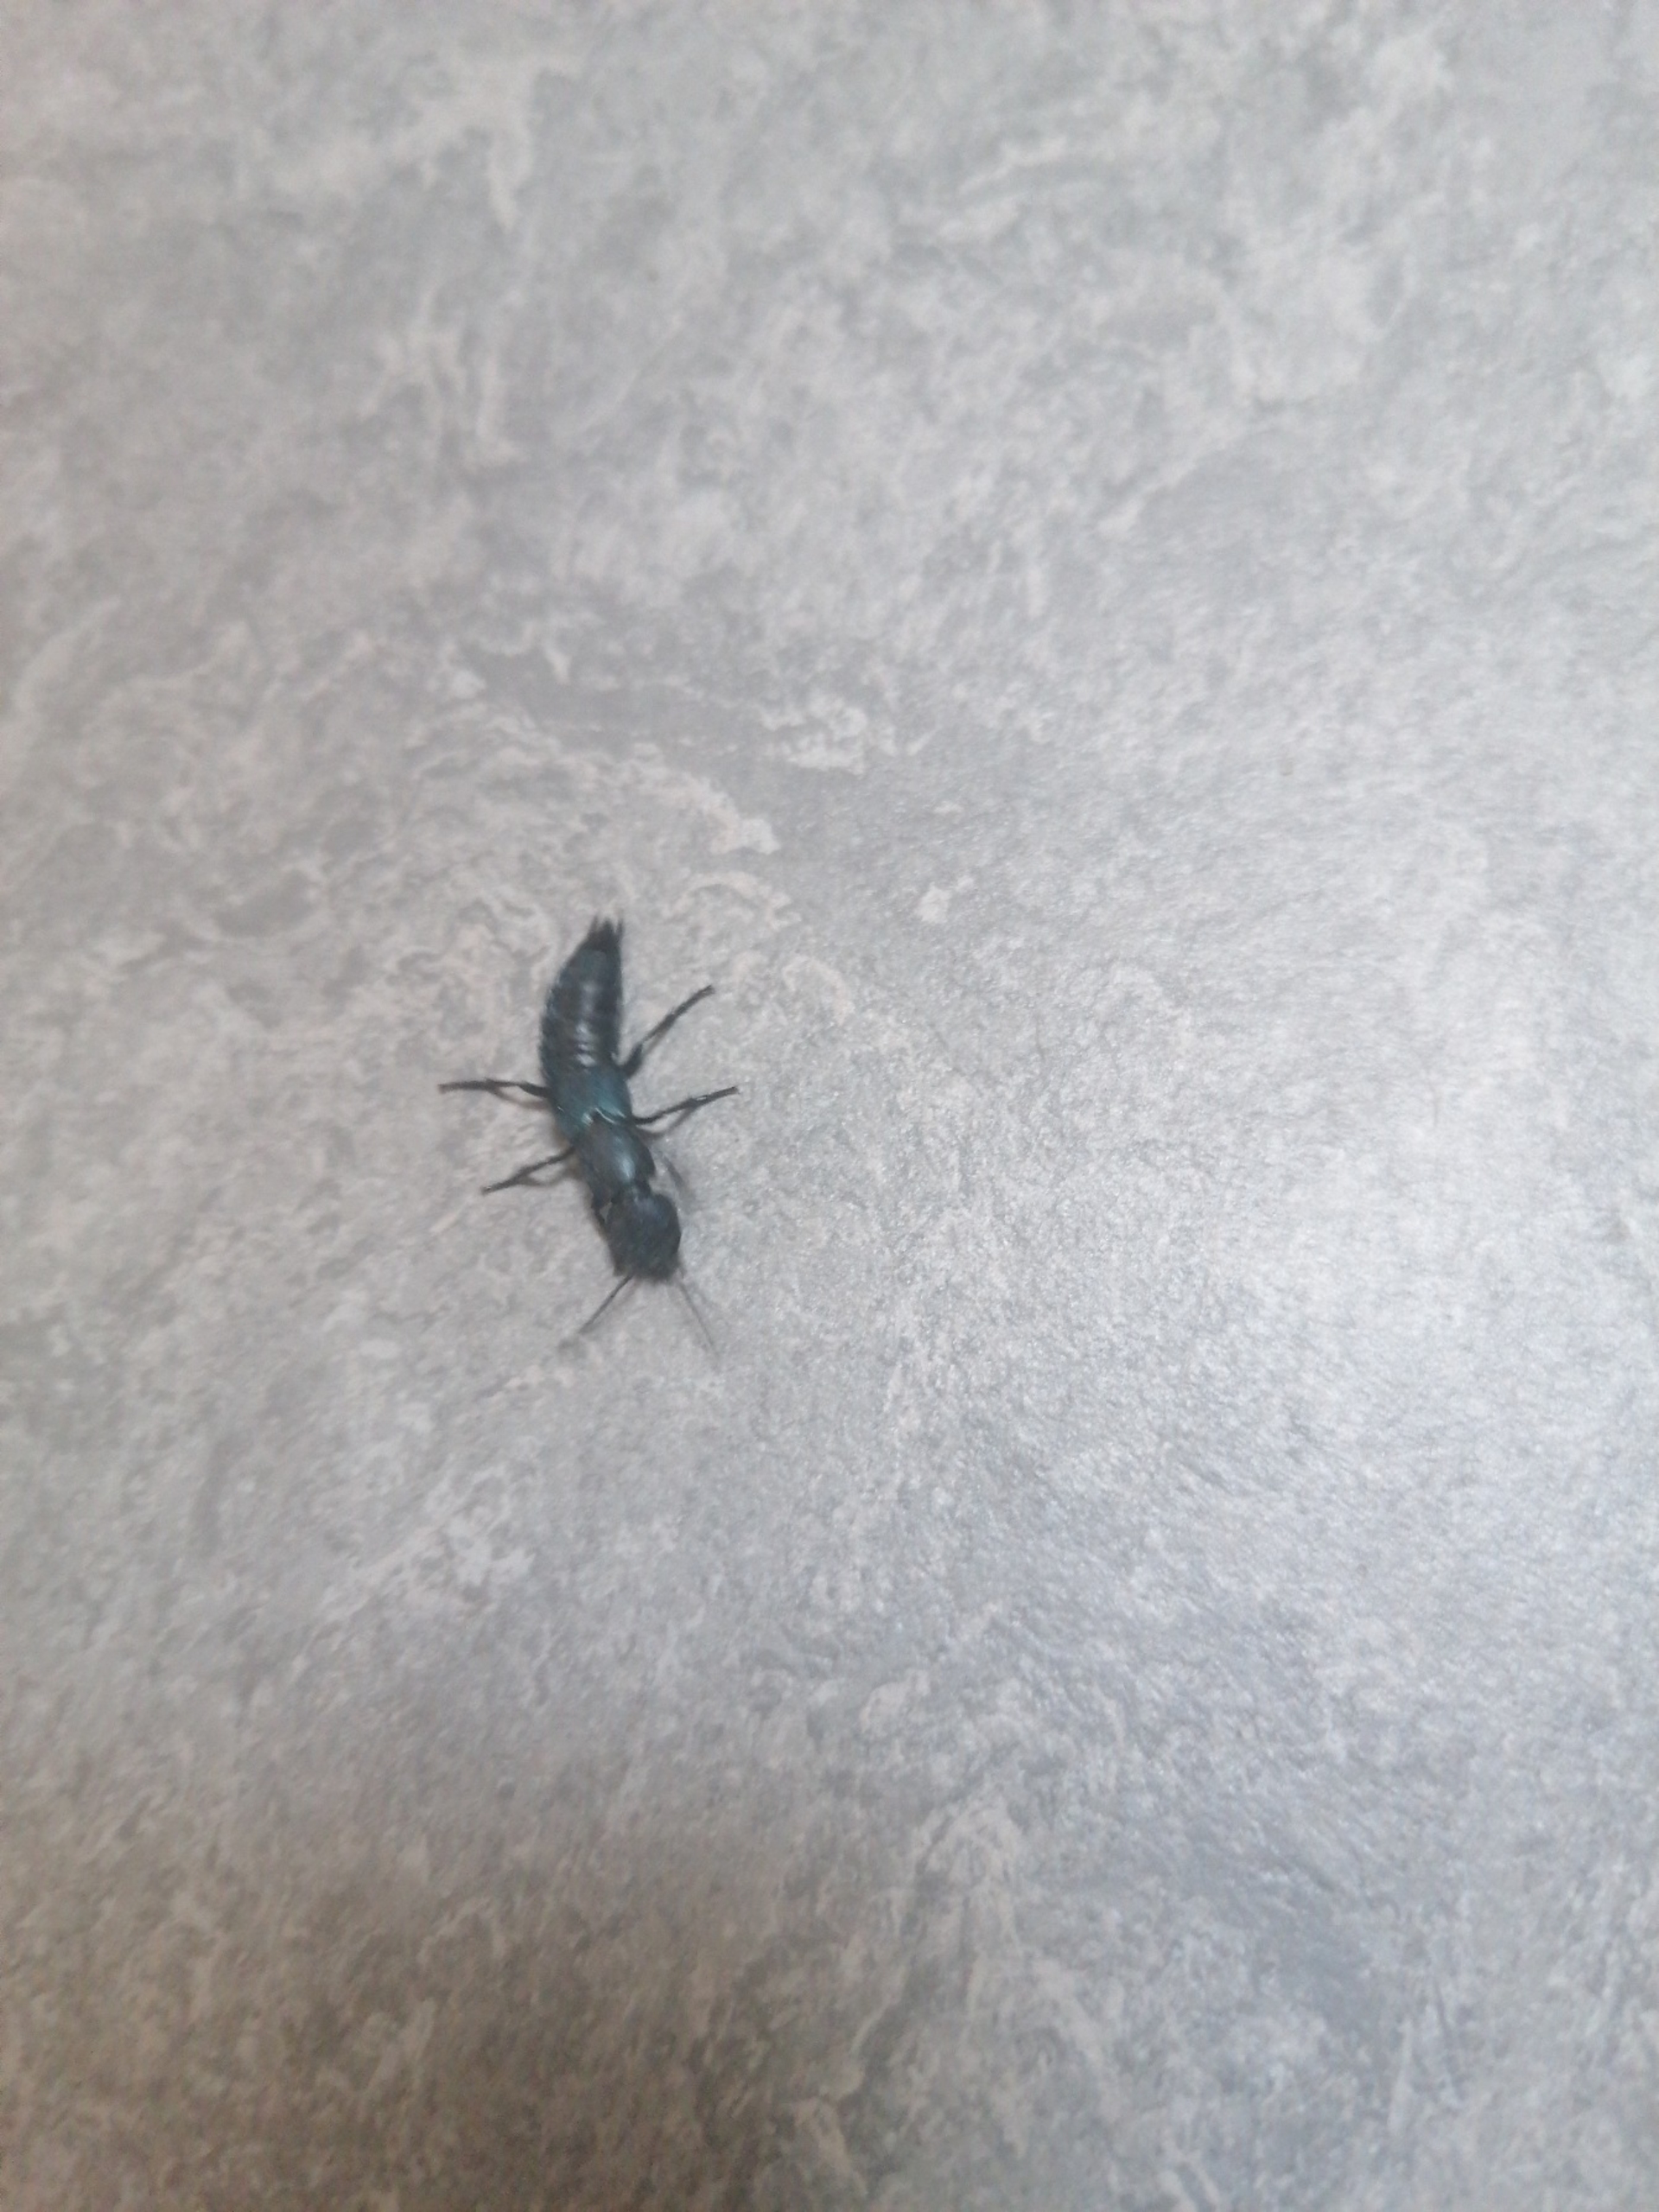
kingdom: Animalia
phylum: Arthropoda
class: Insecta
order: Coleoptera
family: Staphylinidae
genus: Ocypus
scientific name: Ocypus ophthalmicus
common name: Blå kæmperovbille
